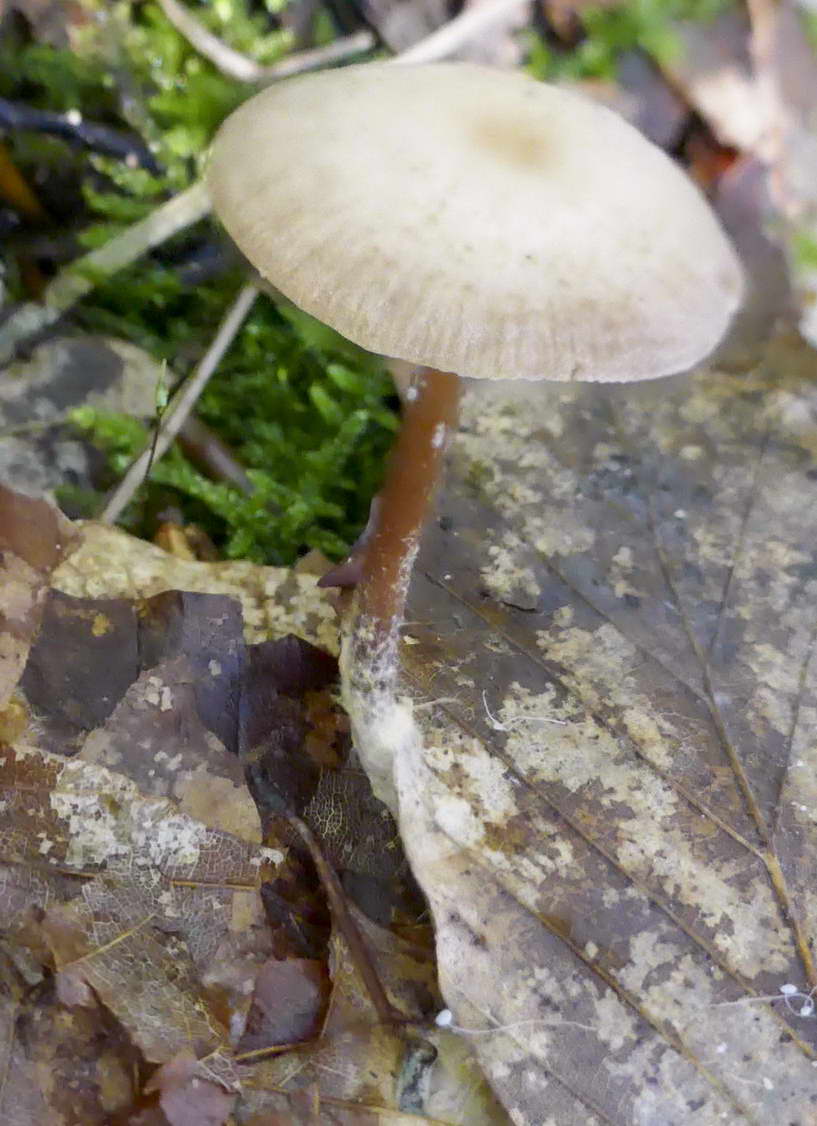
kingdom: Fungi
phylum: Basidiomycota
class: Agaricomycetes
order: Agaricales
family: Omphalotaceae
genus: Gymnopus
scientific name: Gymnopus
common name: fladhat
